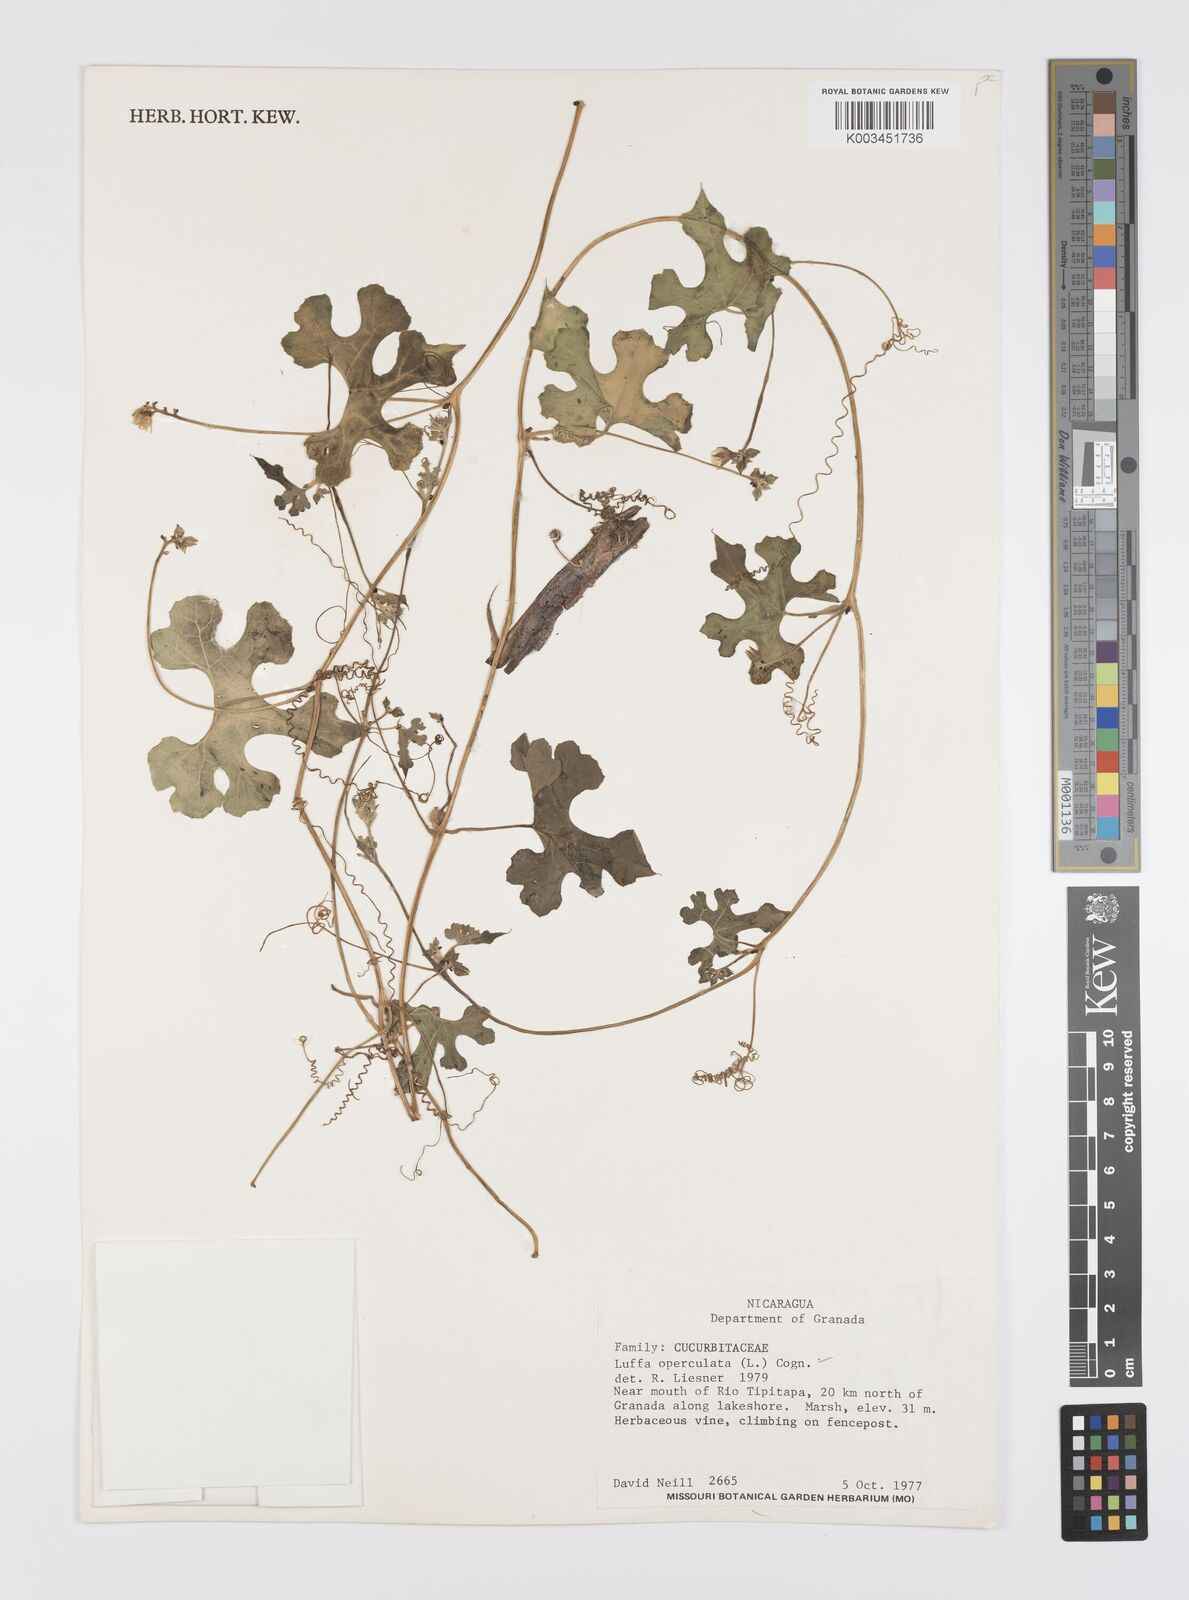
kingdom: Plantae
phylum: Tracheophyta
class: Magnoliopsida
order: Cucurbitales
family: Cucurbitaceae
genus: Luffa
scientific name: Luffa quinquefolia
